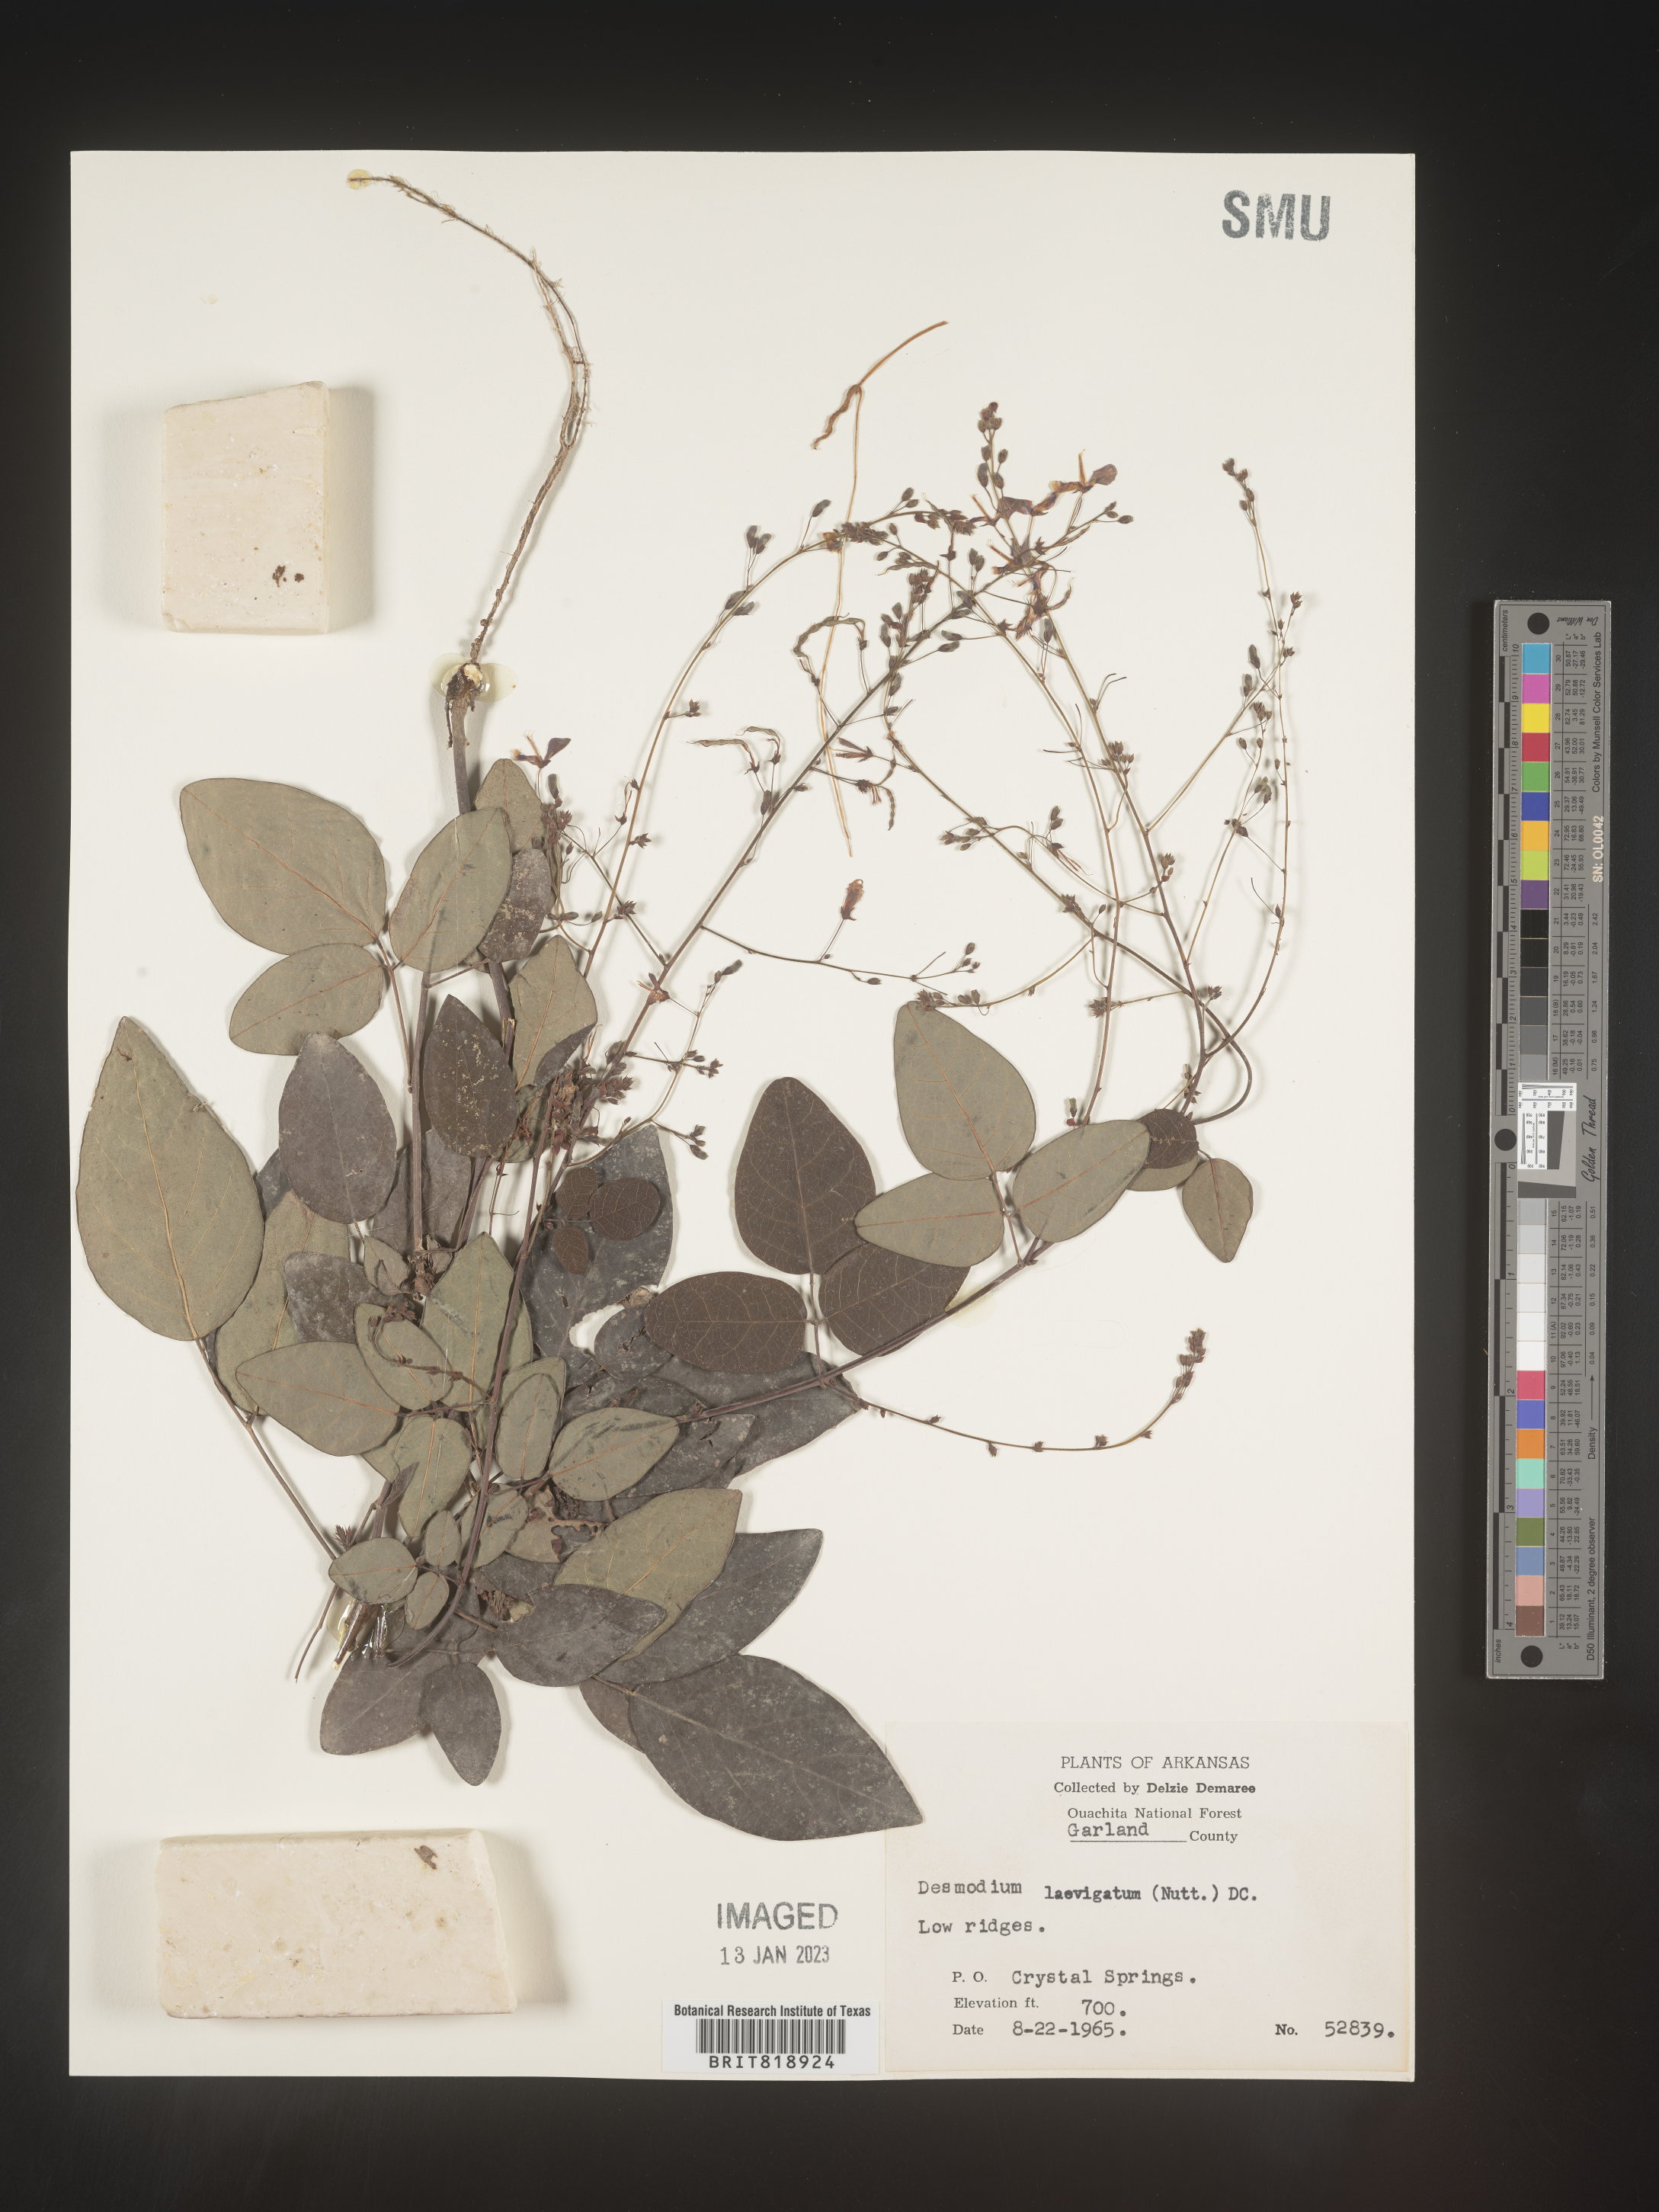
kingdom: Plantae
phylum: Tracheophyta
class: Magnoliopsida
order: Fabales
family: Fabaceae
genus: Desmodium
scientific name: Desmodium laevigatum
